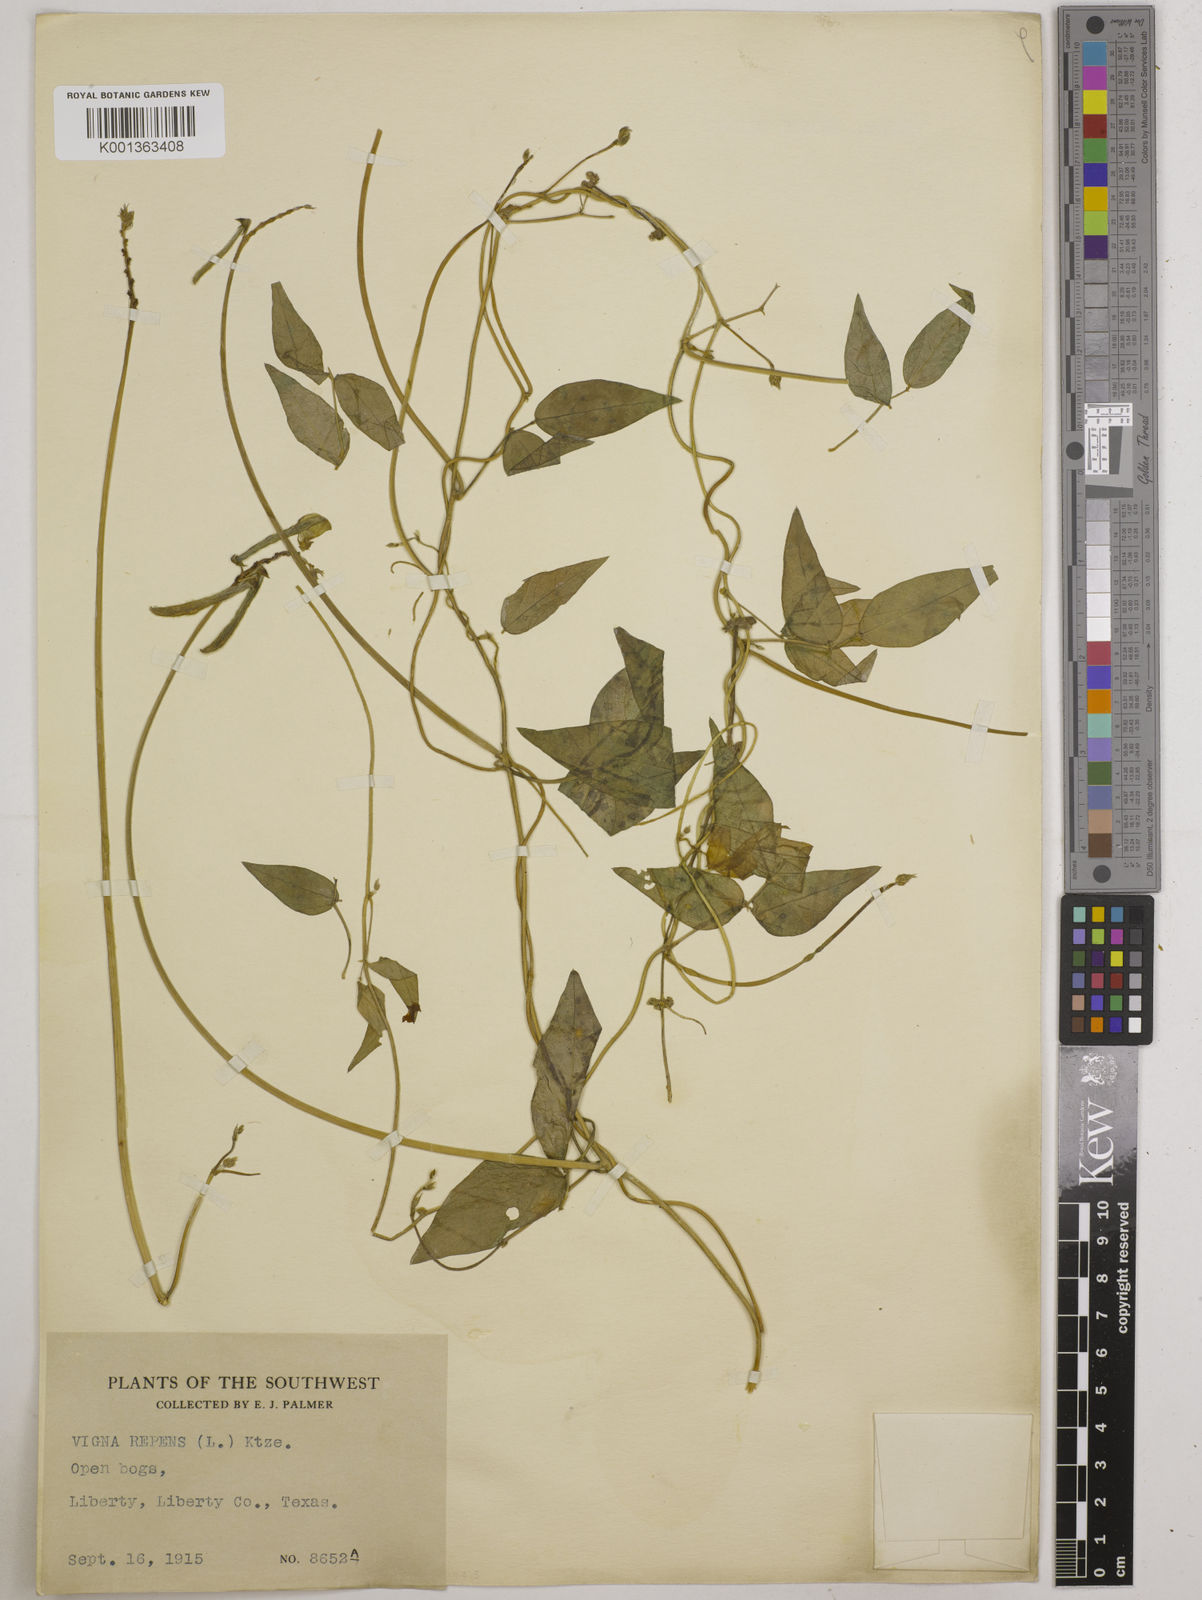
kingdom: Plantae
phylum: Tracheophyta
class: Magnoliopsida
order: Fabales
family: Fabaceae
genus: Vigna
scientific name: Vigna luteola
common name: Hairypod cowpea
